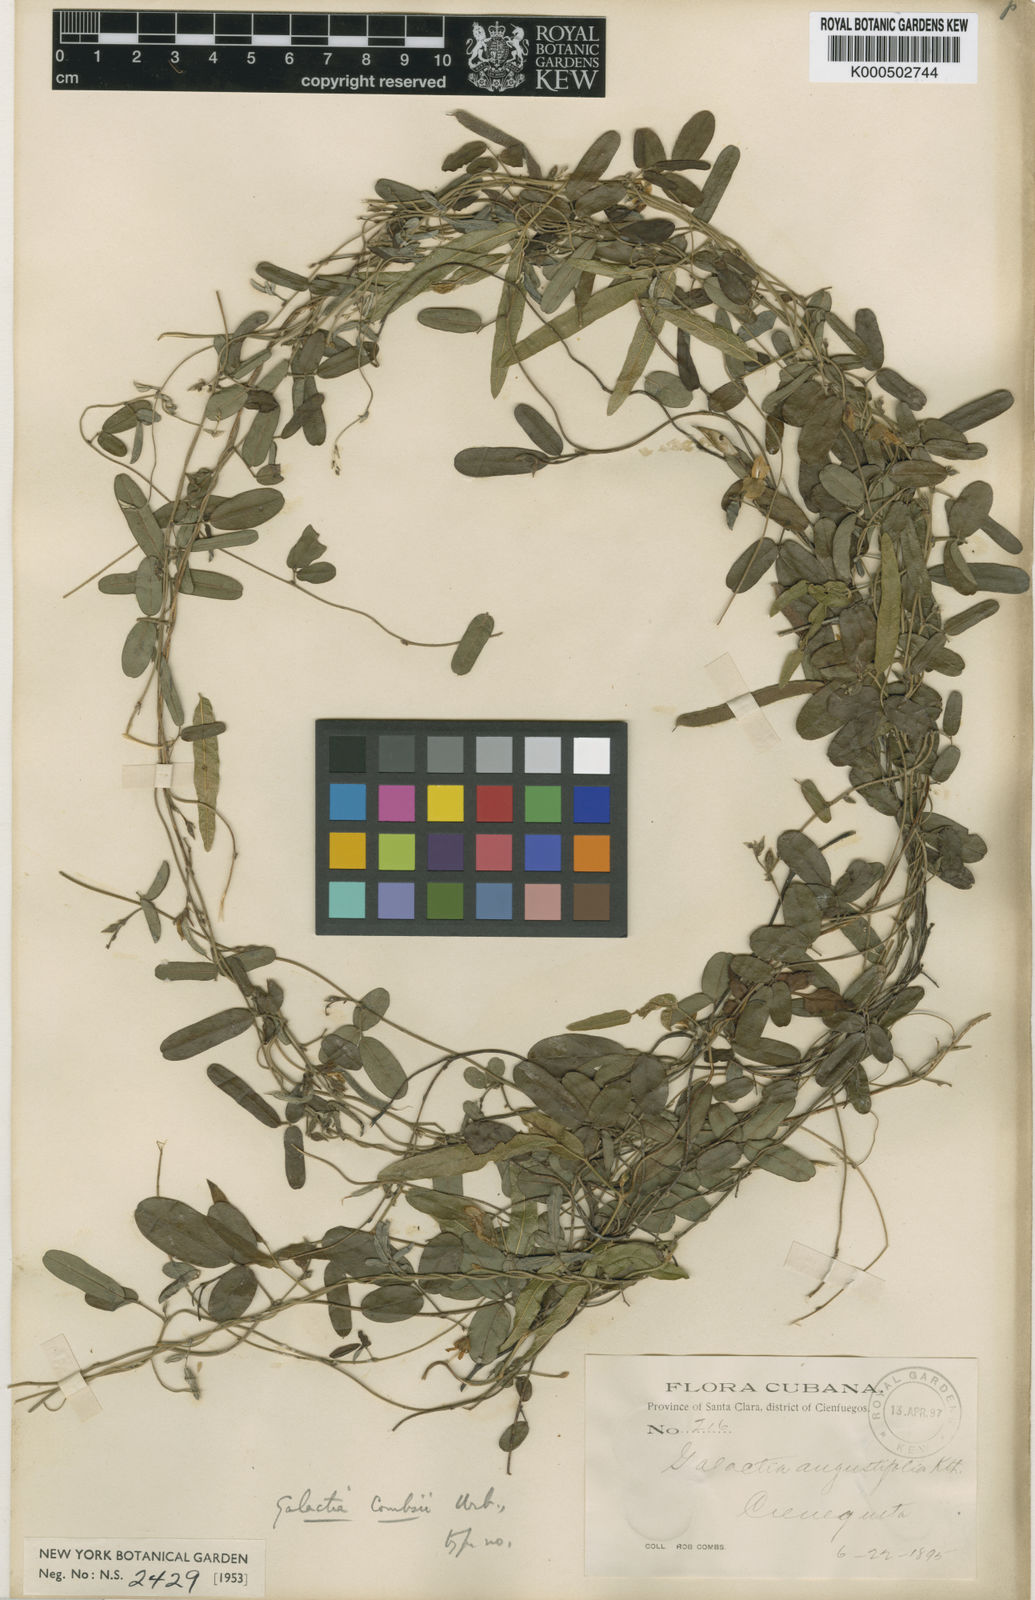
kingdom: Plantae
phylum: Tracheophyta
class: Magnoliopsida
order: Fabales
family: Fabaceae
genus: Galactia
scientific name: Galactia combsii
